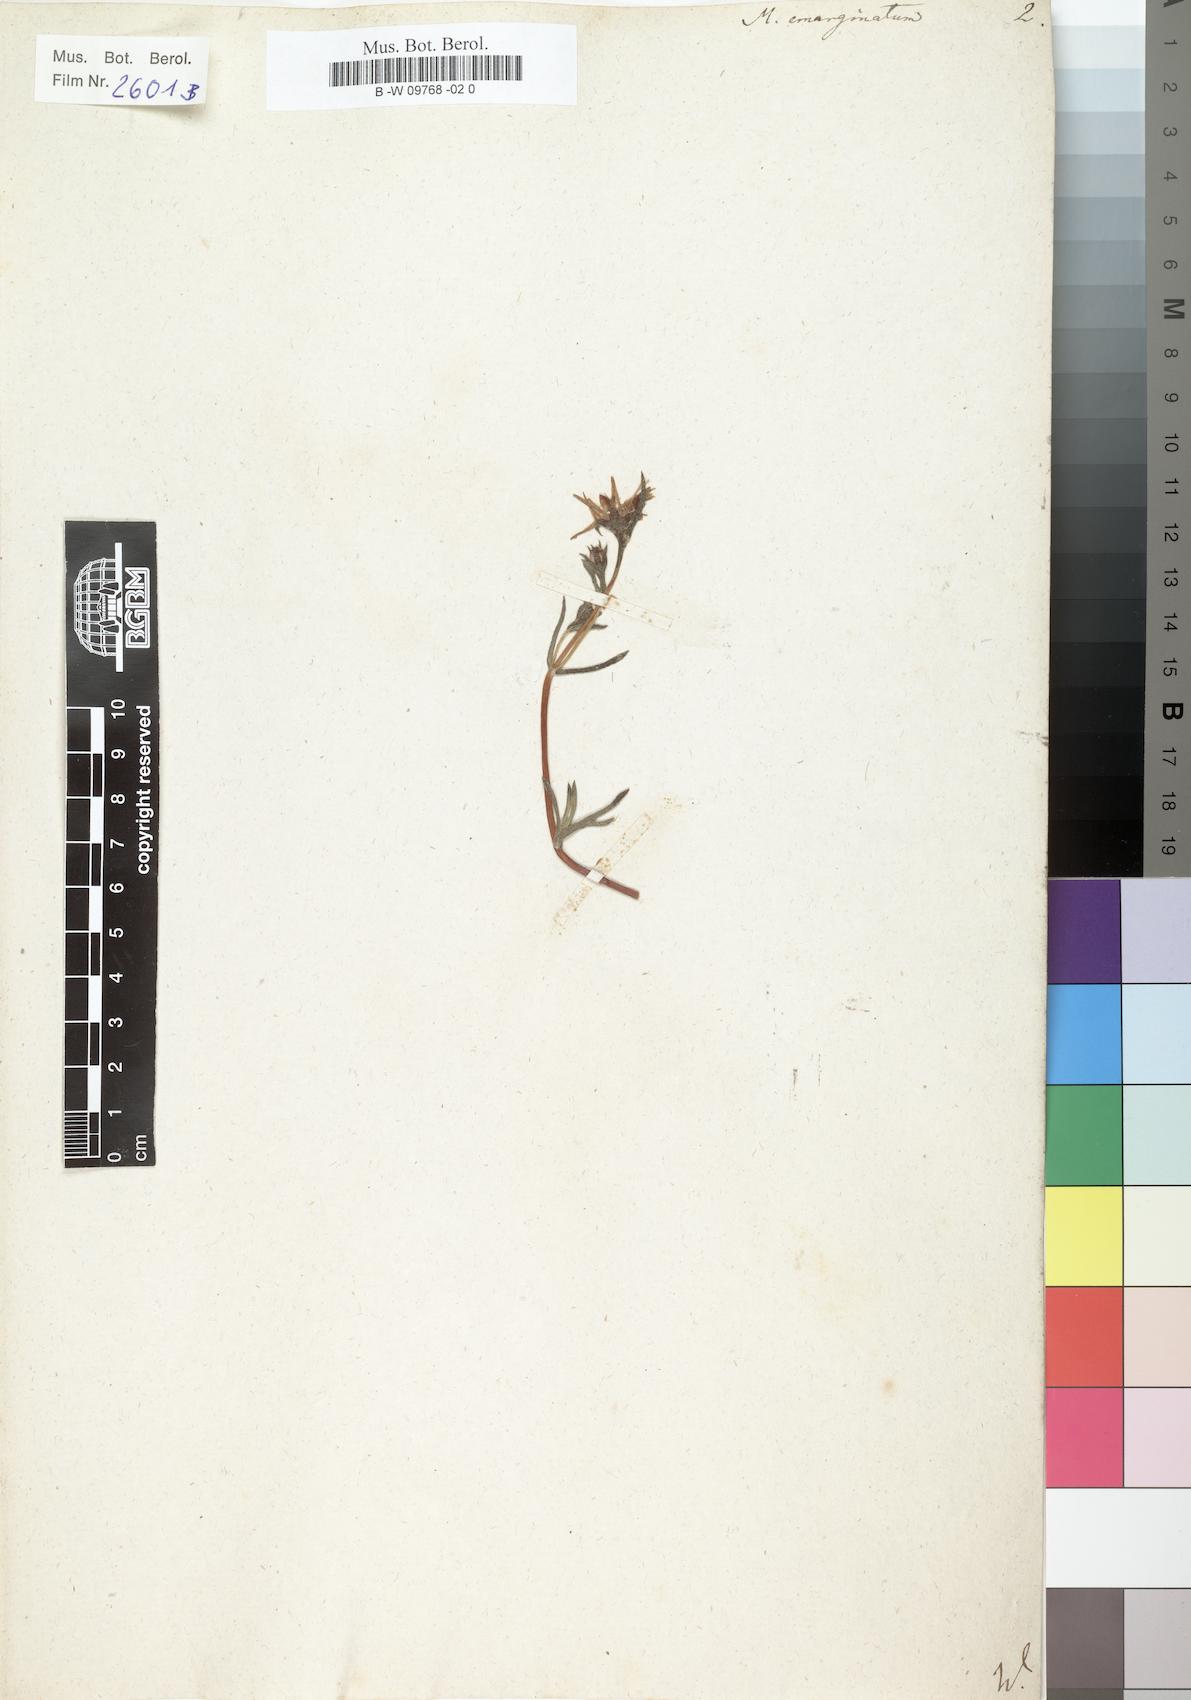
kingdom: Plantae
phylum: Tracheophyta
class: Magnoliopsida
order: Caryophyllales
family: Aizoaceae
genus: Lampranthus
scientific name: Lampranthus emarginatus
